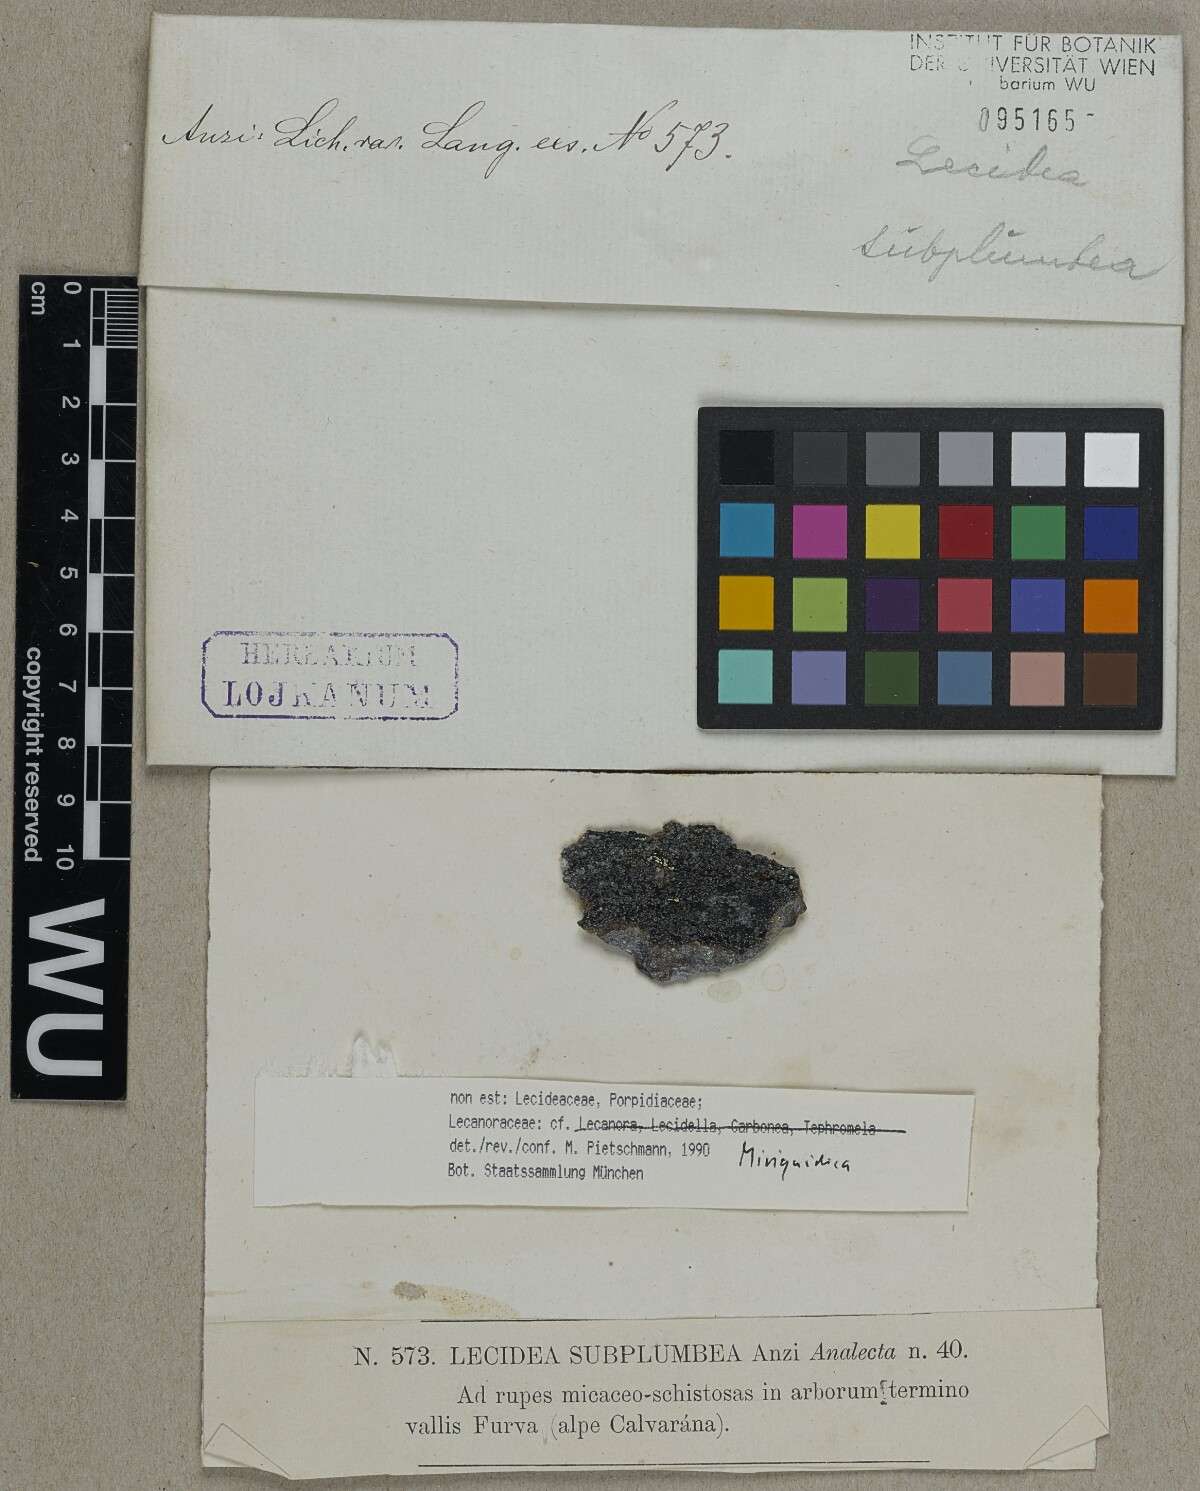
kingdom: Fungi
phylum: Ascomycota
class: Lecanoromycetes
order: Lecanorales
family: Lecanoraceae
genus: Miriquidica
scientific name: Miriquidica
